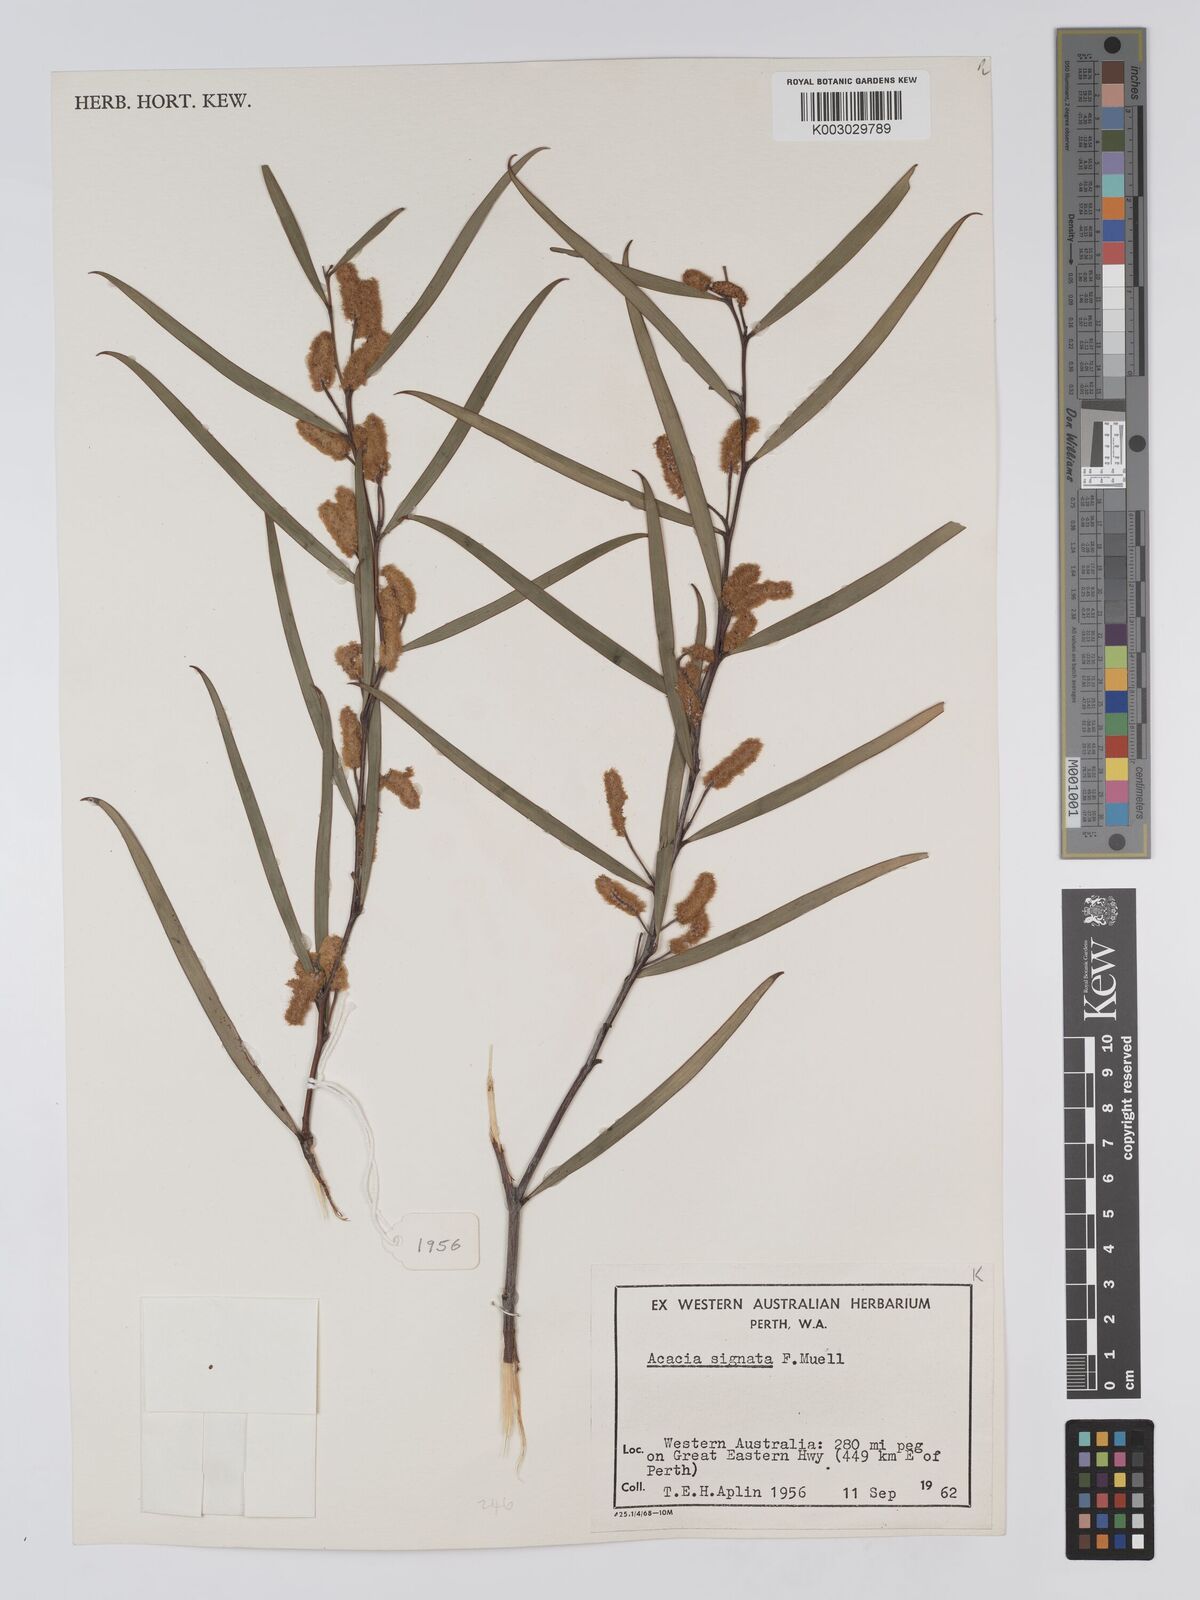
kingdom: Plantae
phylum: Tracheophyta
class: Magnoliopsida
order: Fabales
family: Fabaceae
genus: Acacia
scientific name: Acacia signata
